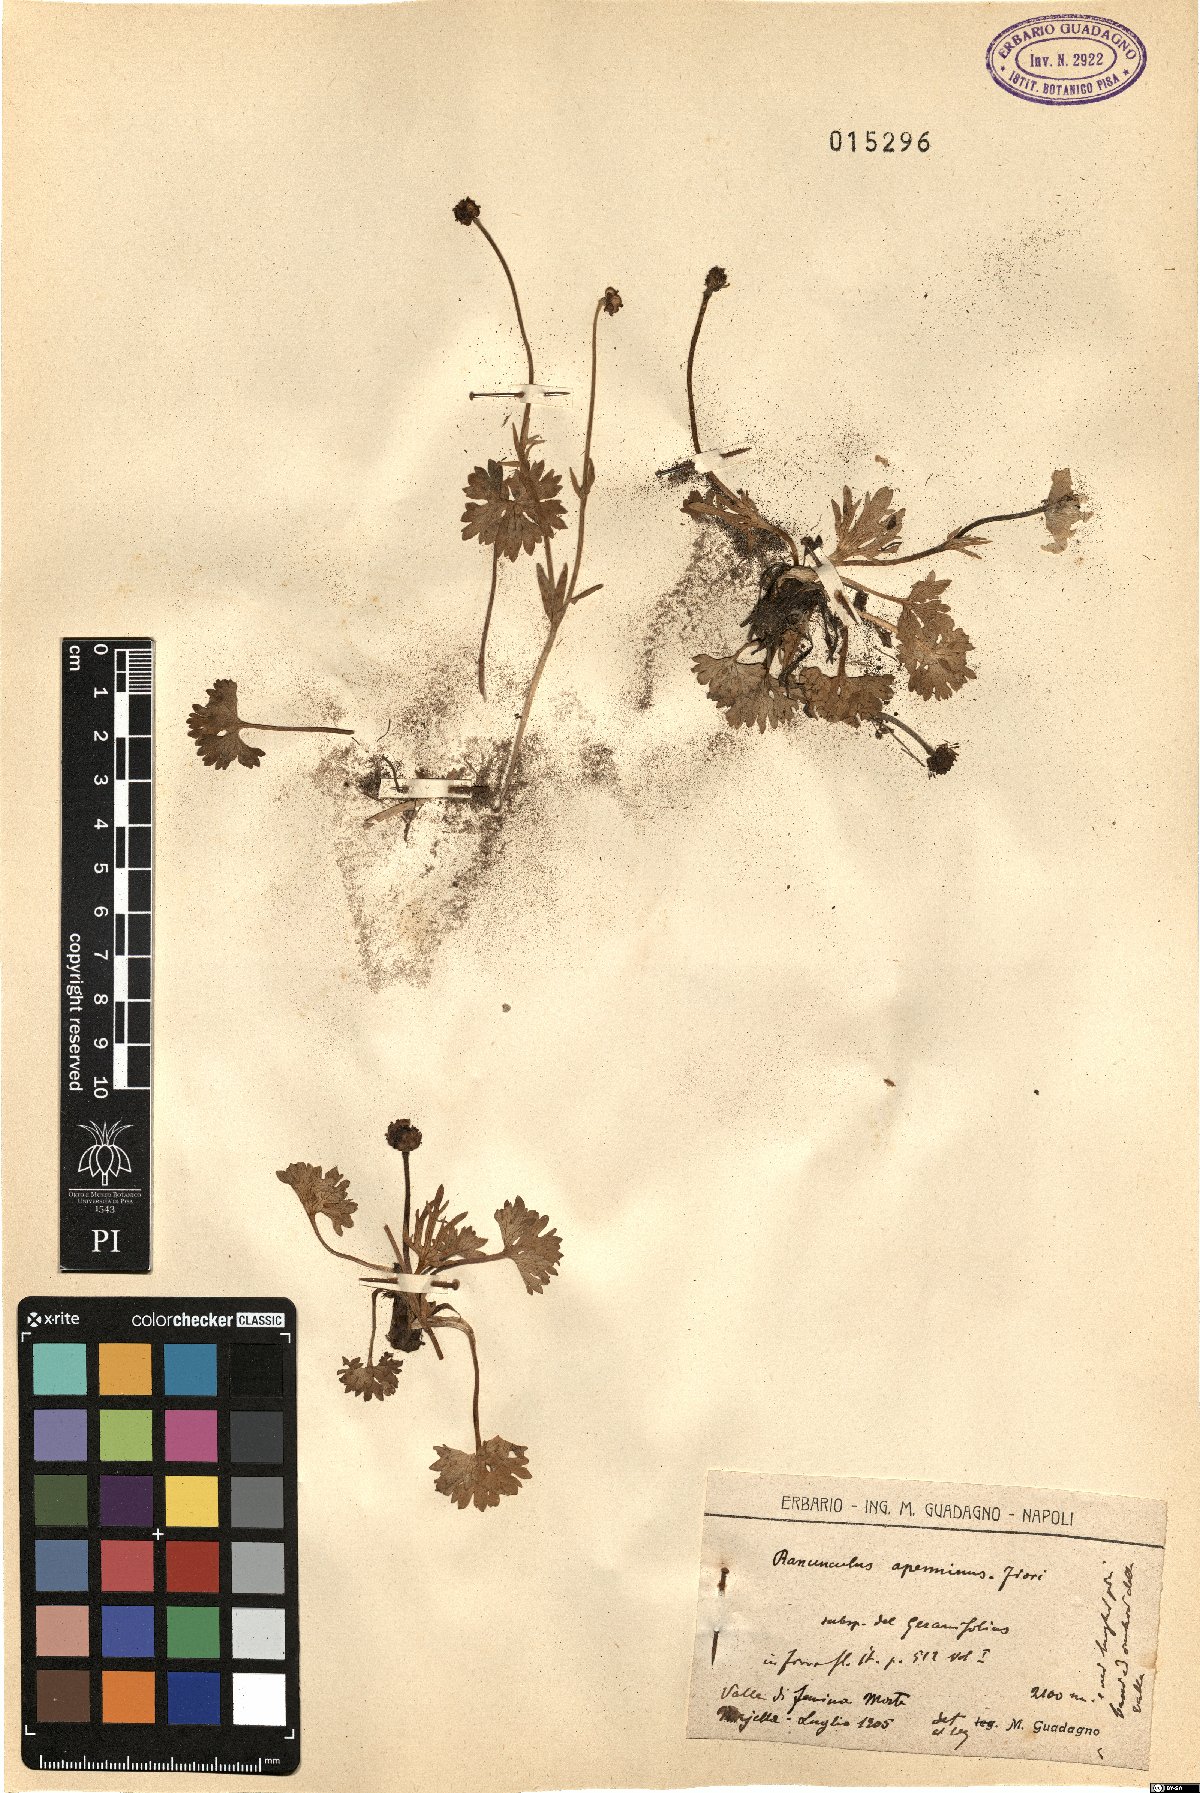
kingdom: Plantae
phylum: Tracheophyta
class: Magnoliopsida
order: Ranunculales
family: Ranunculaceae
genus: Ranunculus
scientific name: Ranunculus apenninus
